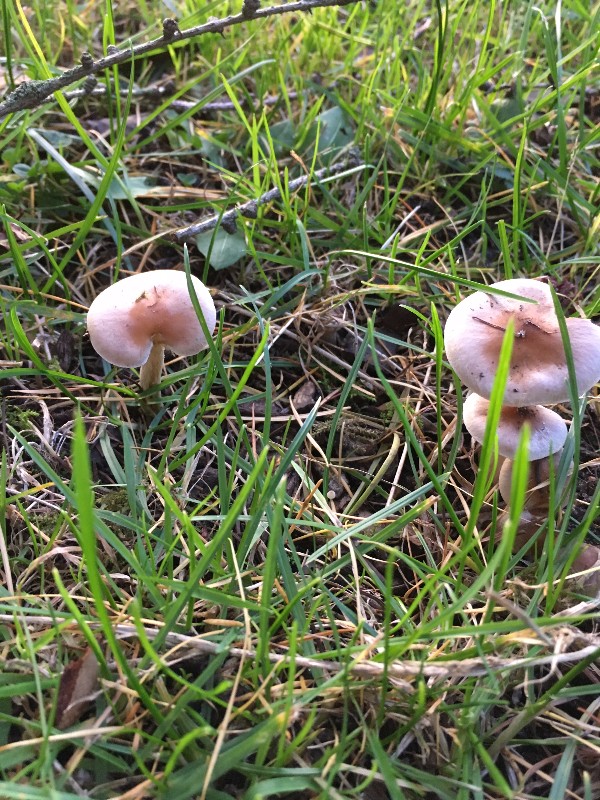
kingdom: Fungi
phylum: Basidiomycota
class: Agaricomycetes
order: Agaricales
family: Hymenogastraceae
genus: Hebeloma
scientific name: Hebeloma mesophaeum
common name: lerbrun tåreblad
